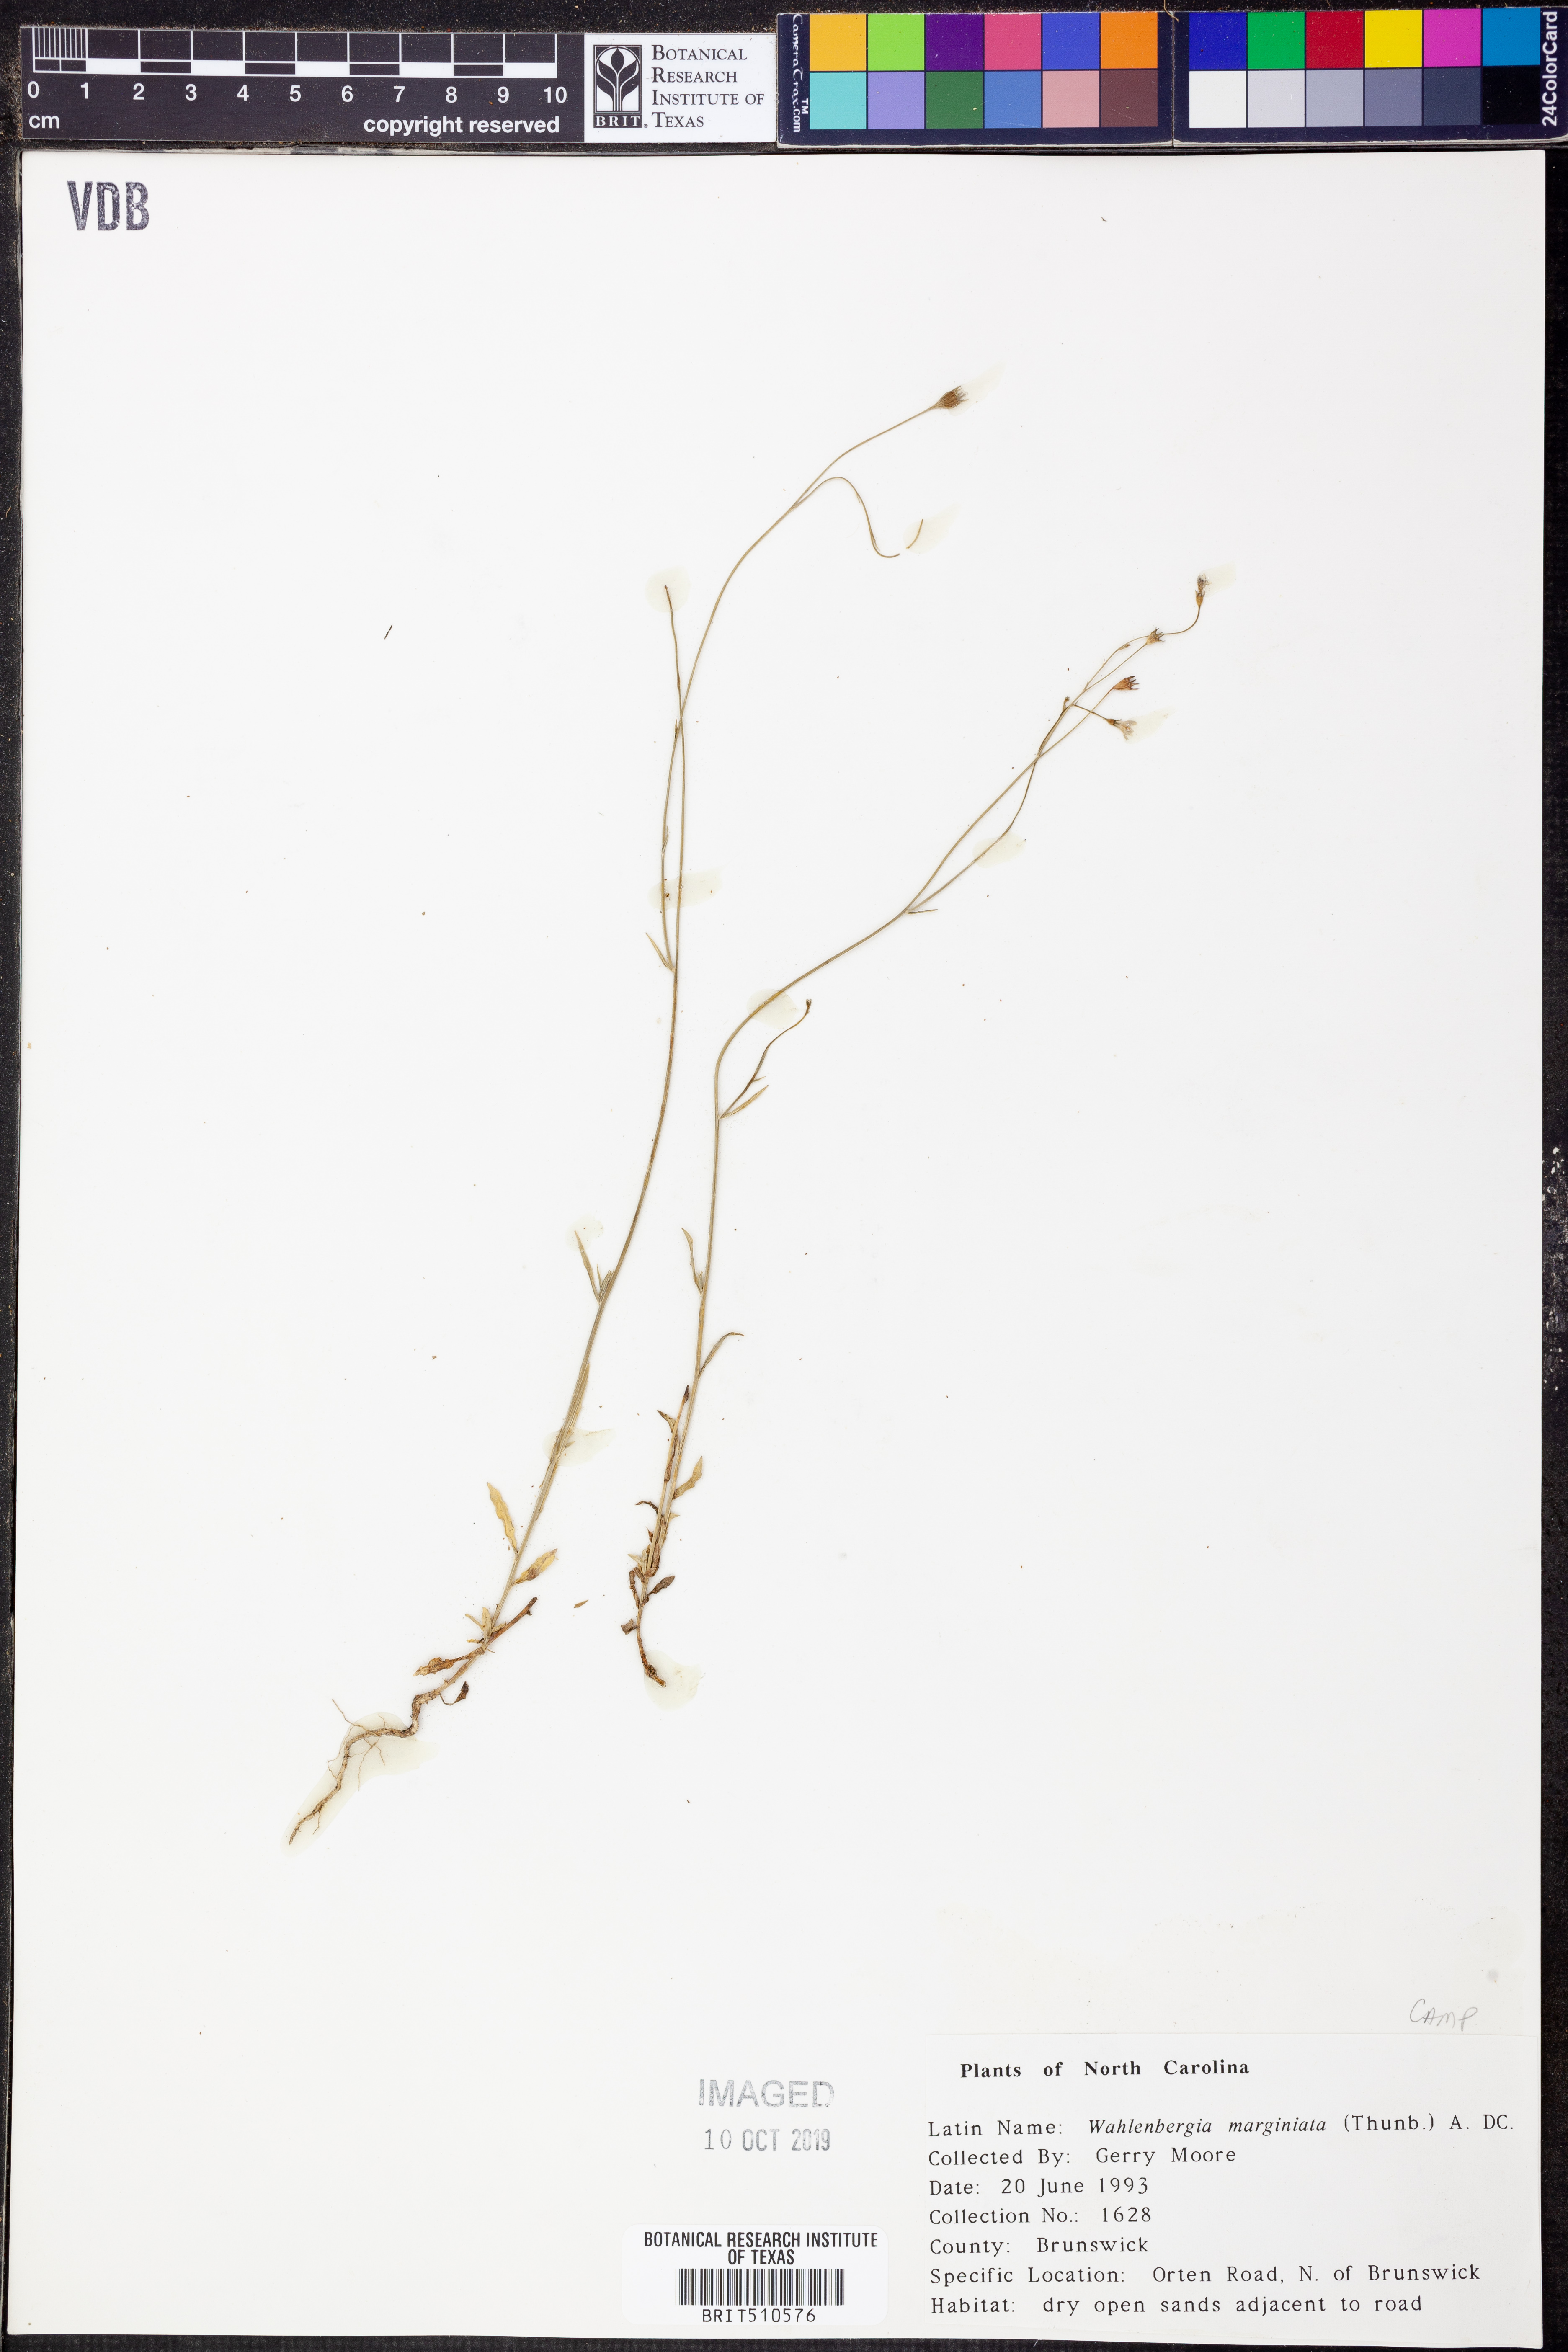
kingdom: Plantae
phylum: Tracheophyta
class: Magnoliopsida
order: Asterales
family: Campanulaceae
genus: Wahlenbergia
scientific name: Wahlenbergia marginata
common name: Southern rockbell
